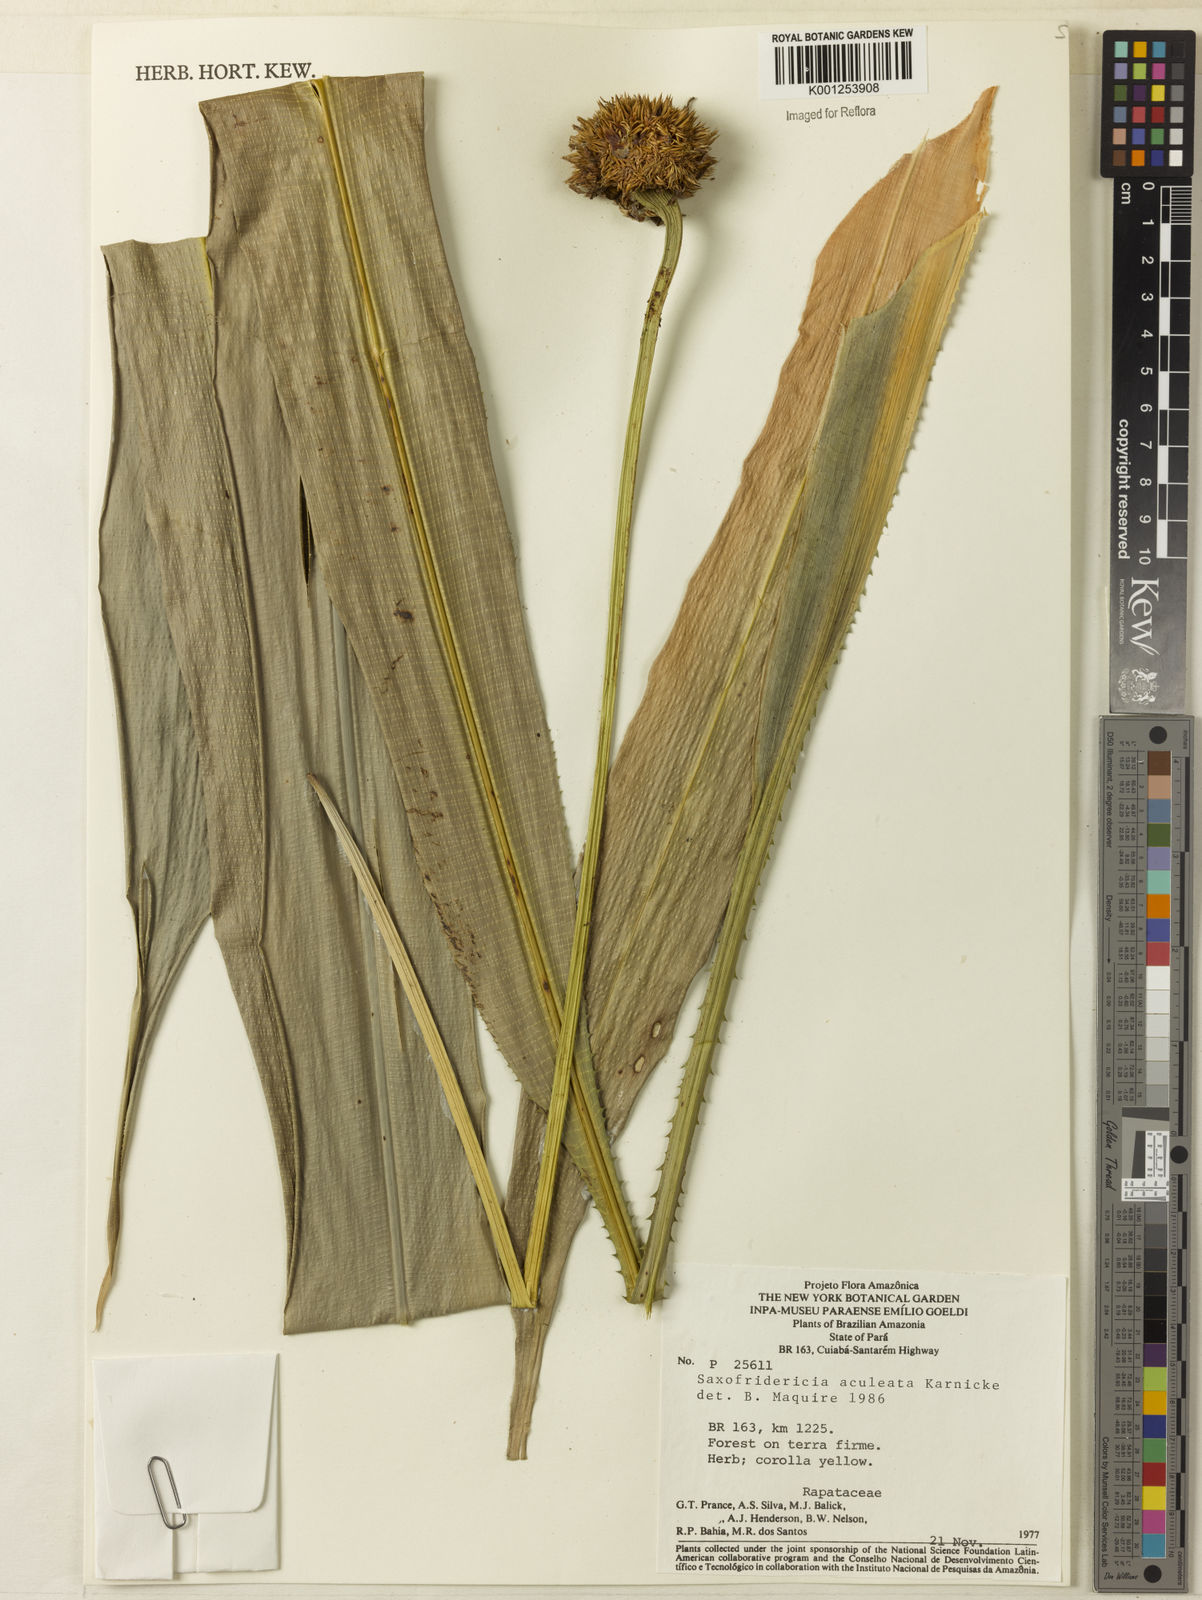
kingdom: Plantae
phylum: Tracheophyta
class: Liliopsida
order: Poales
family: Rapateaceae
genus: Saxofridericia
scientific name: Saxofridericia aculeata
